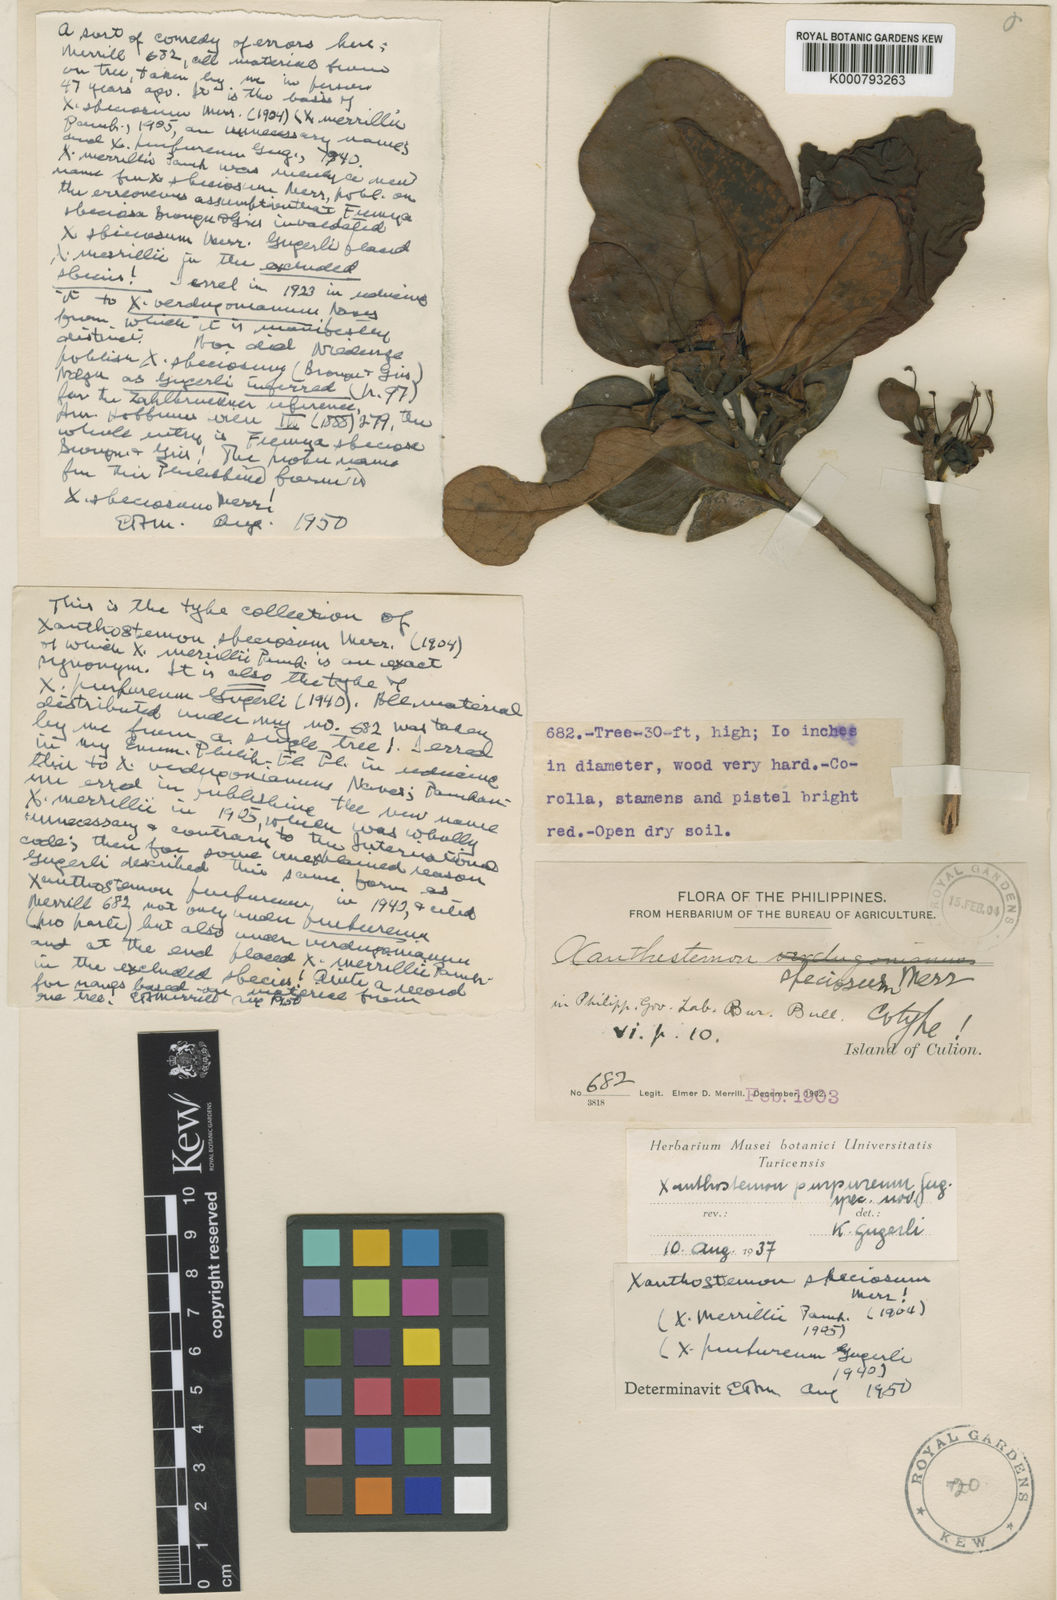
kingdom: Plantae
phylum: Tracheophyta
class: Magnoliopsida
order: Myrtales
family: Myrtaceae
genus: Xanthostemon
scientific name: Xanthostemon speciosus
